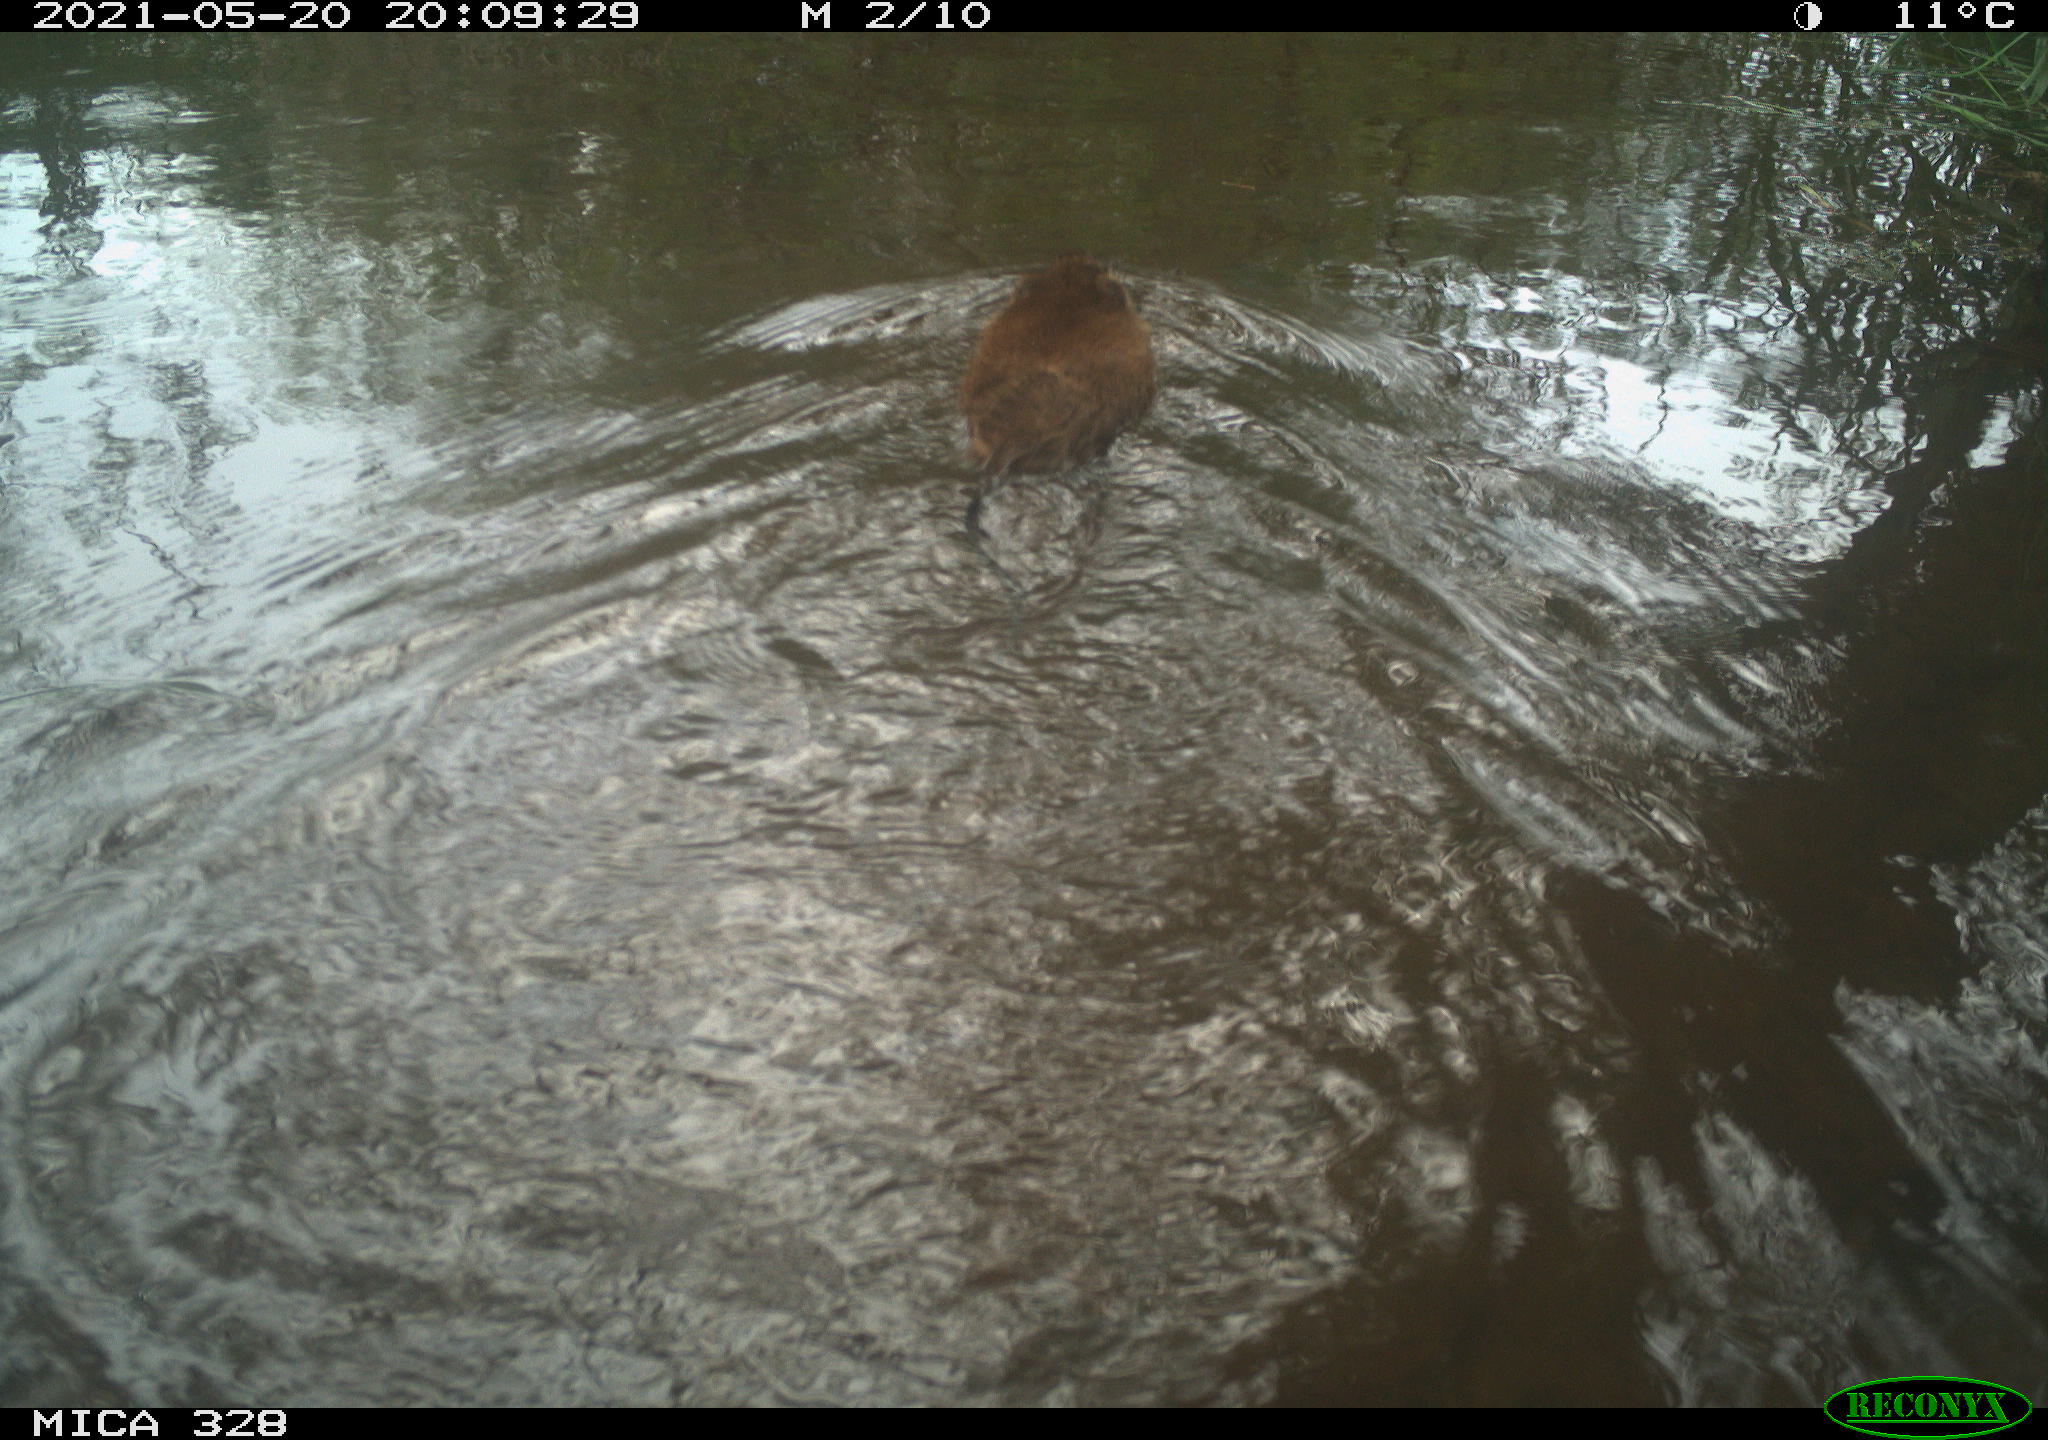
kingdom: Animalia
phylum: Chordata
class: Mammalia
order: Rodentia
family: Cricetidae
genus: Ondatra
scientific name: Ondatra zibethicus
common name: Muskrat
